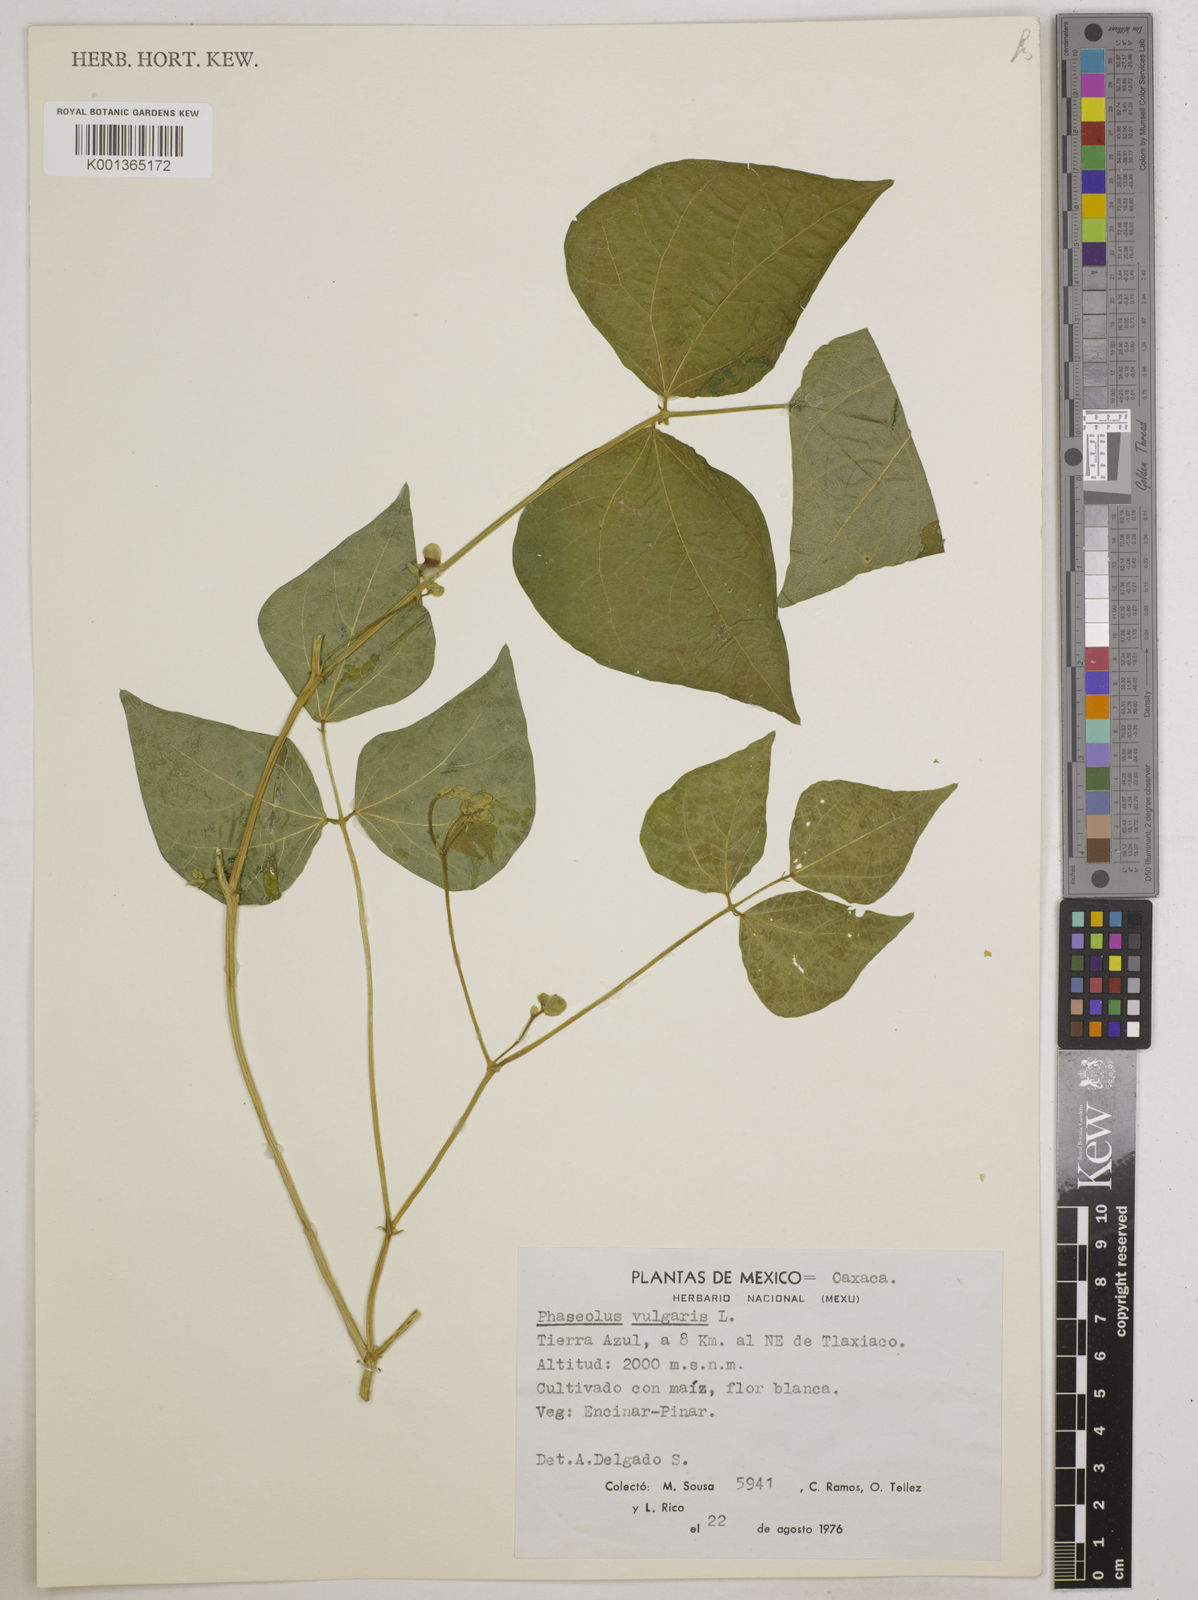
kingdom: Plantae
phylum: Tracheophyta
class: Magnoliopsida
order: Fabales
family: Fabaceae
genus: Phaseolus
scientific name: Phaseolus vulgaris
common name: Bean
